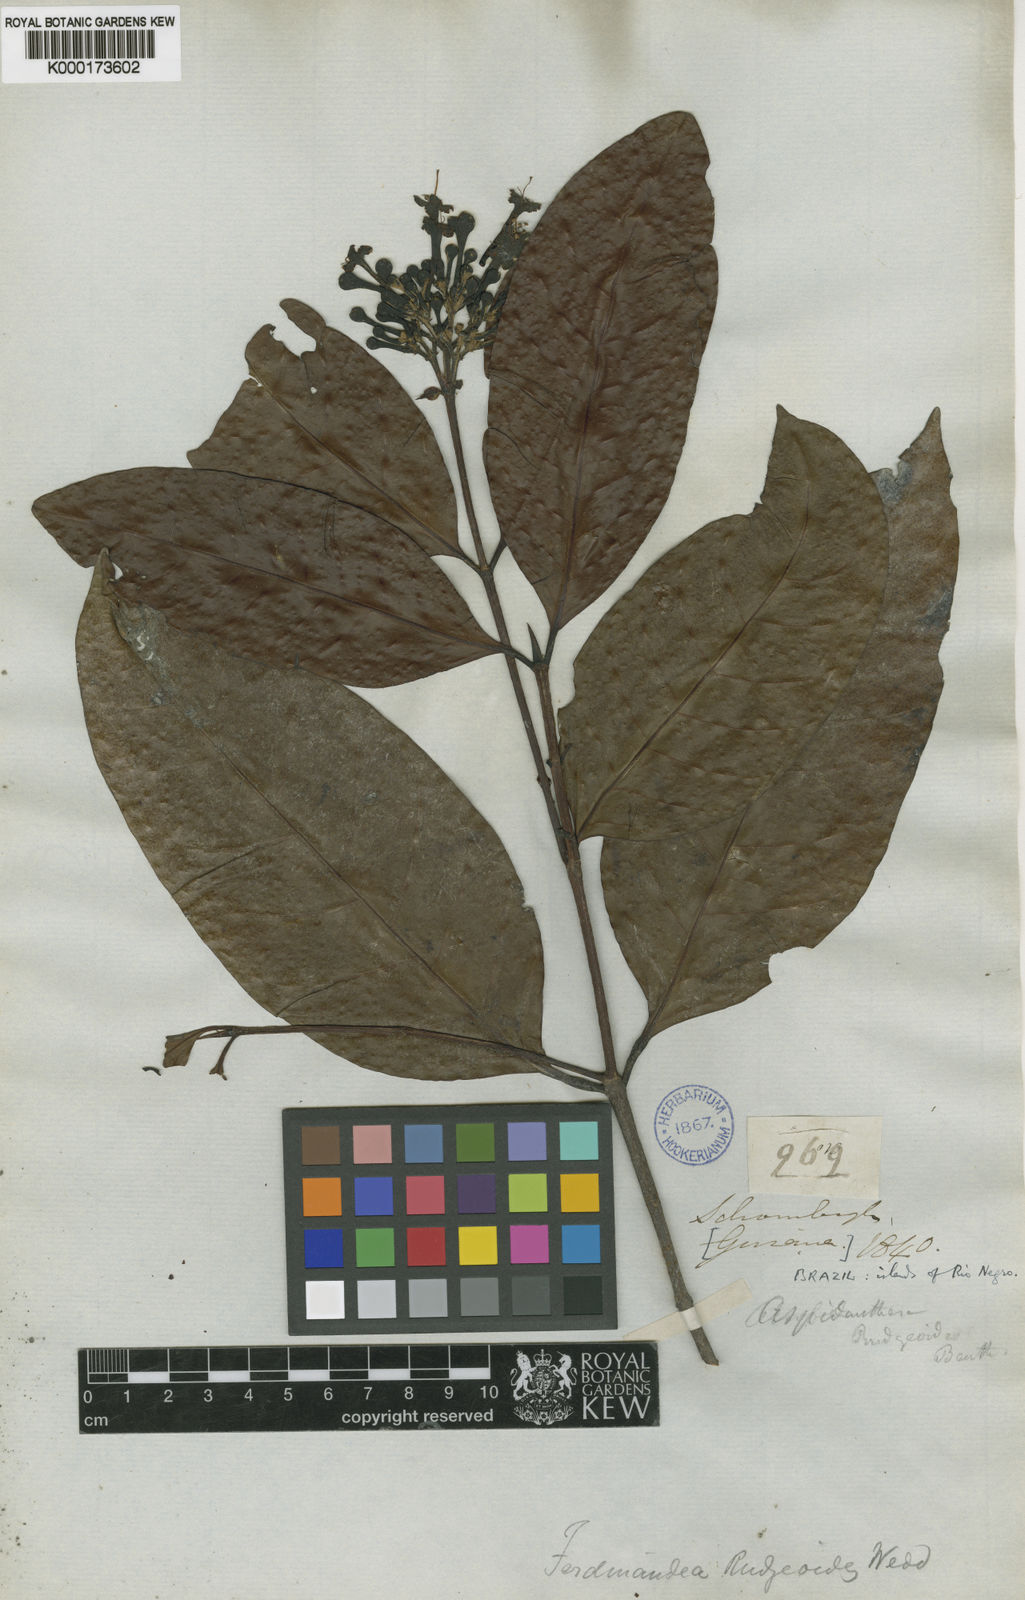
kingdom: Plantae
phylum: Tracheophyta
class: Magnoliopsida
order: Gentianales
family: Rubiaceae
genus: Ferdinandusa
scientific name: Ferdinandusa rudgeoides
